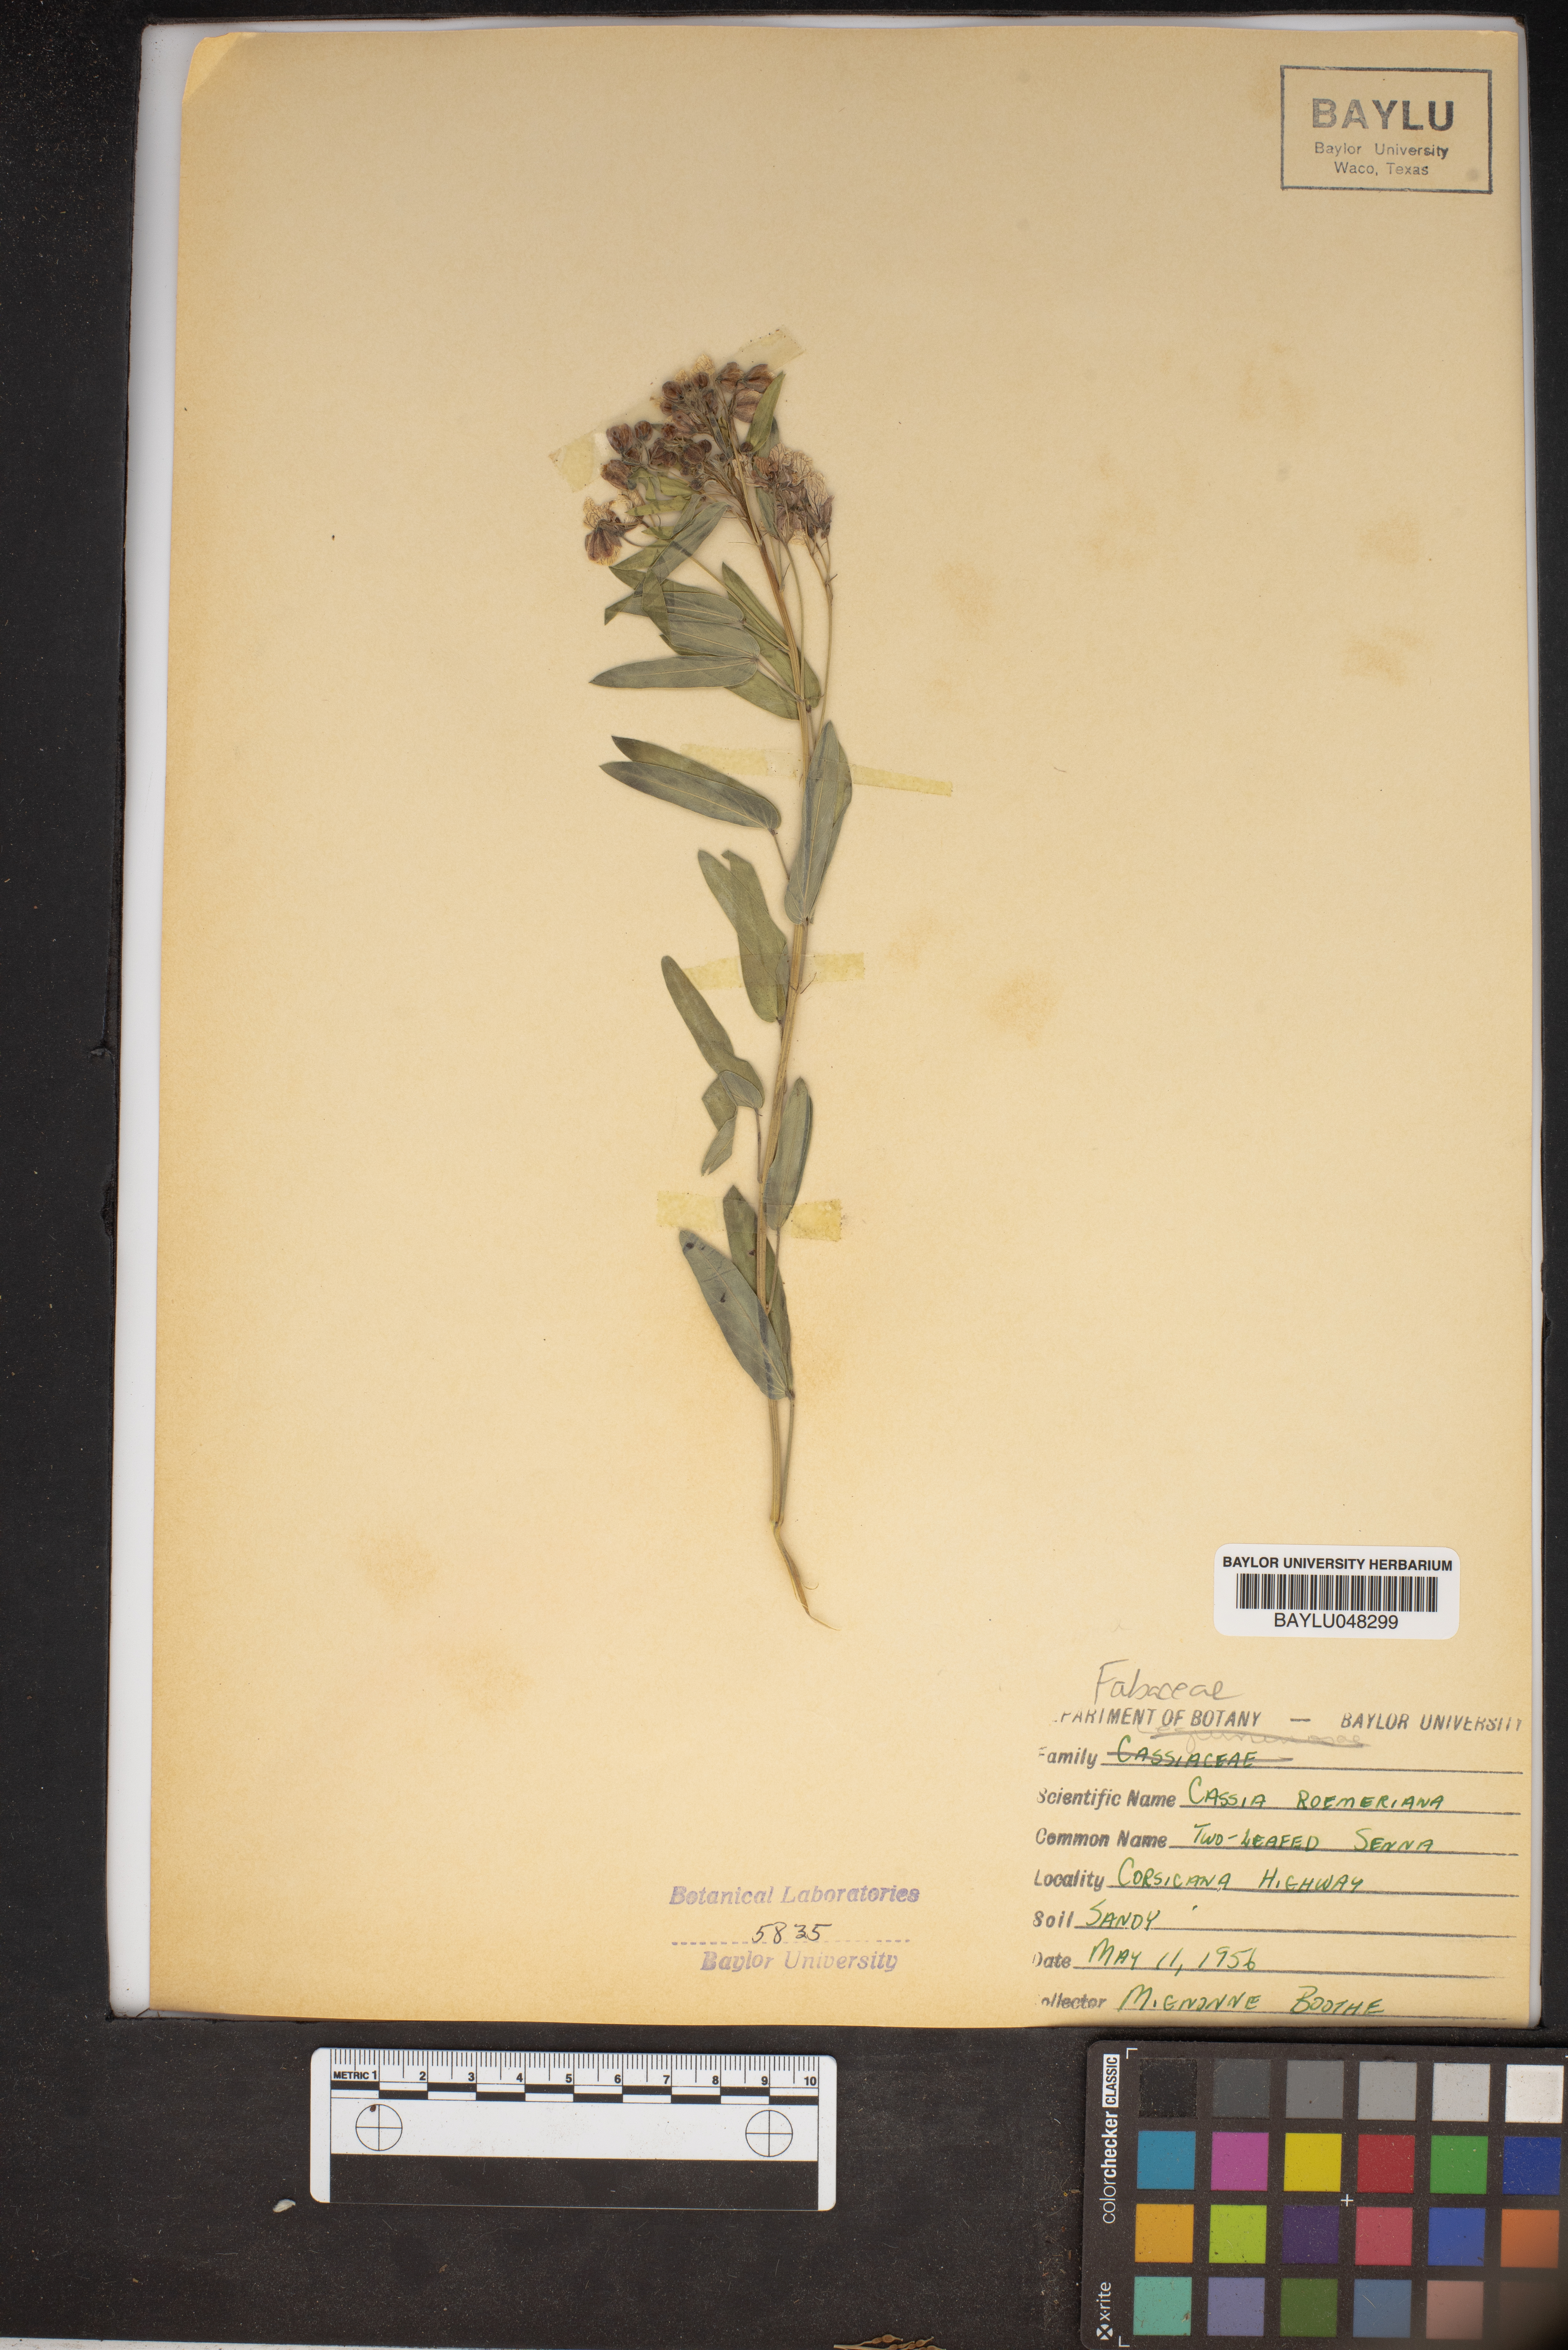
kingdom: Plantae
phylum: Tracheophyta
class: Magnoliopsida
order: Fabales
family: Fabaceae
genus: Senna
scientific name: Senna roemeriana
